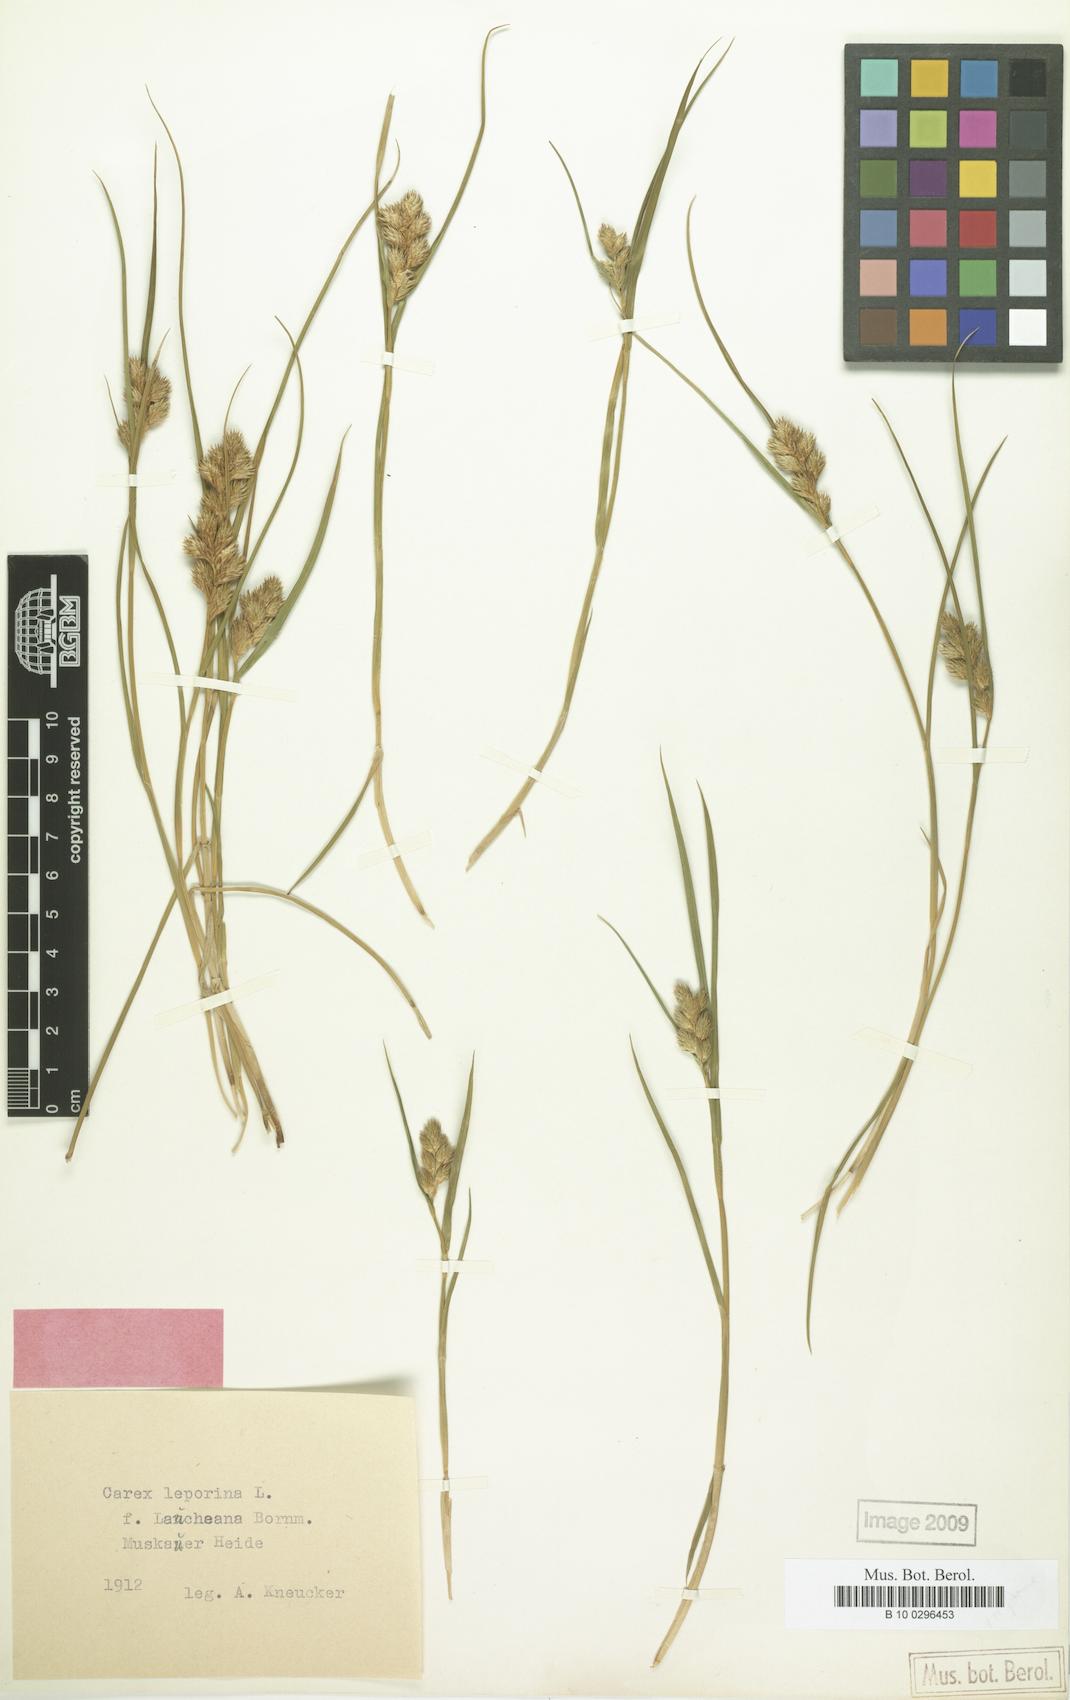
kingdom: Plantae
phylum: Tracheophyta
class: Liliopsida
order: Poales
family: Cyperaceae
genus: Carex
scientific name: Carex leporina
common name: Oval sedge
